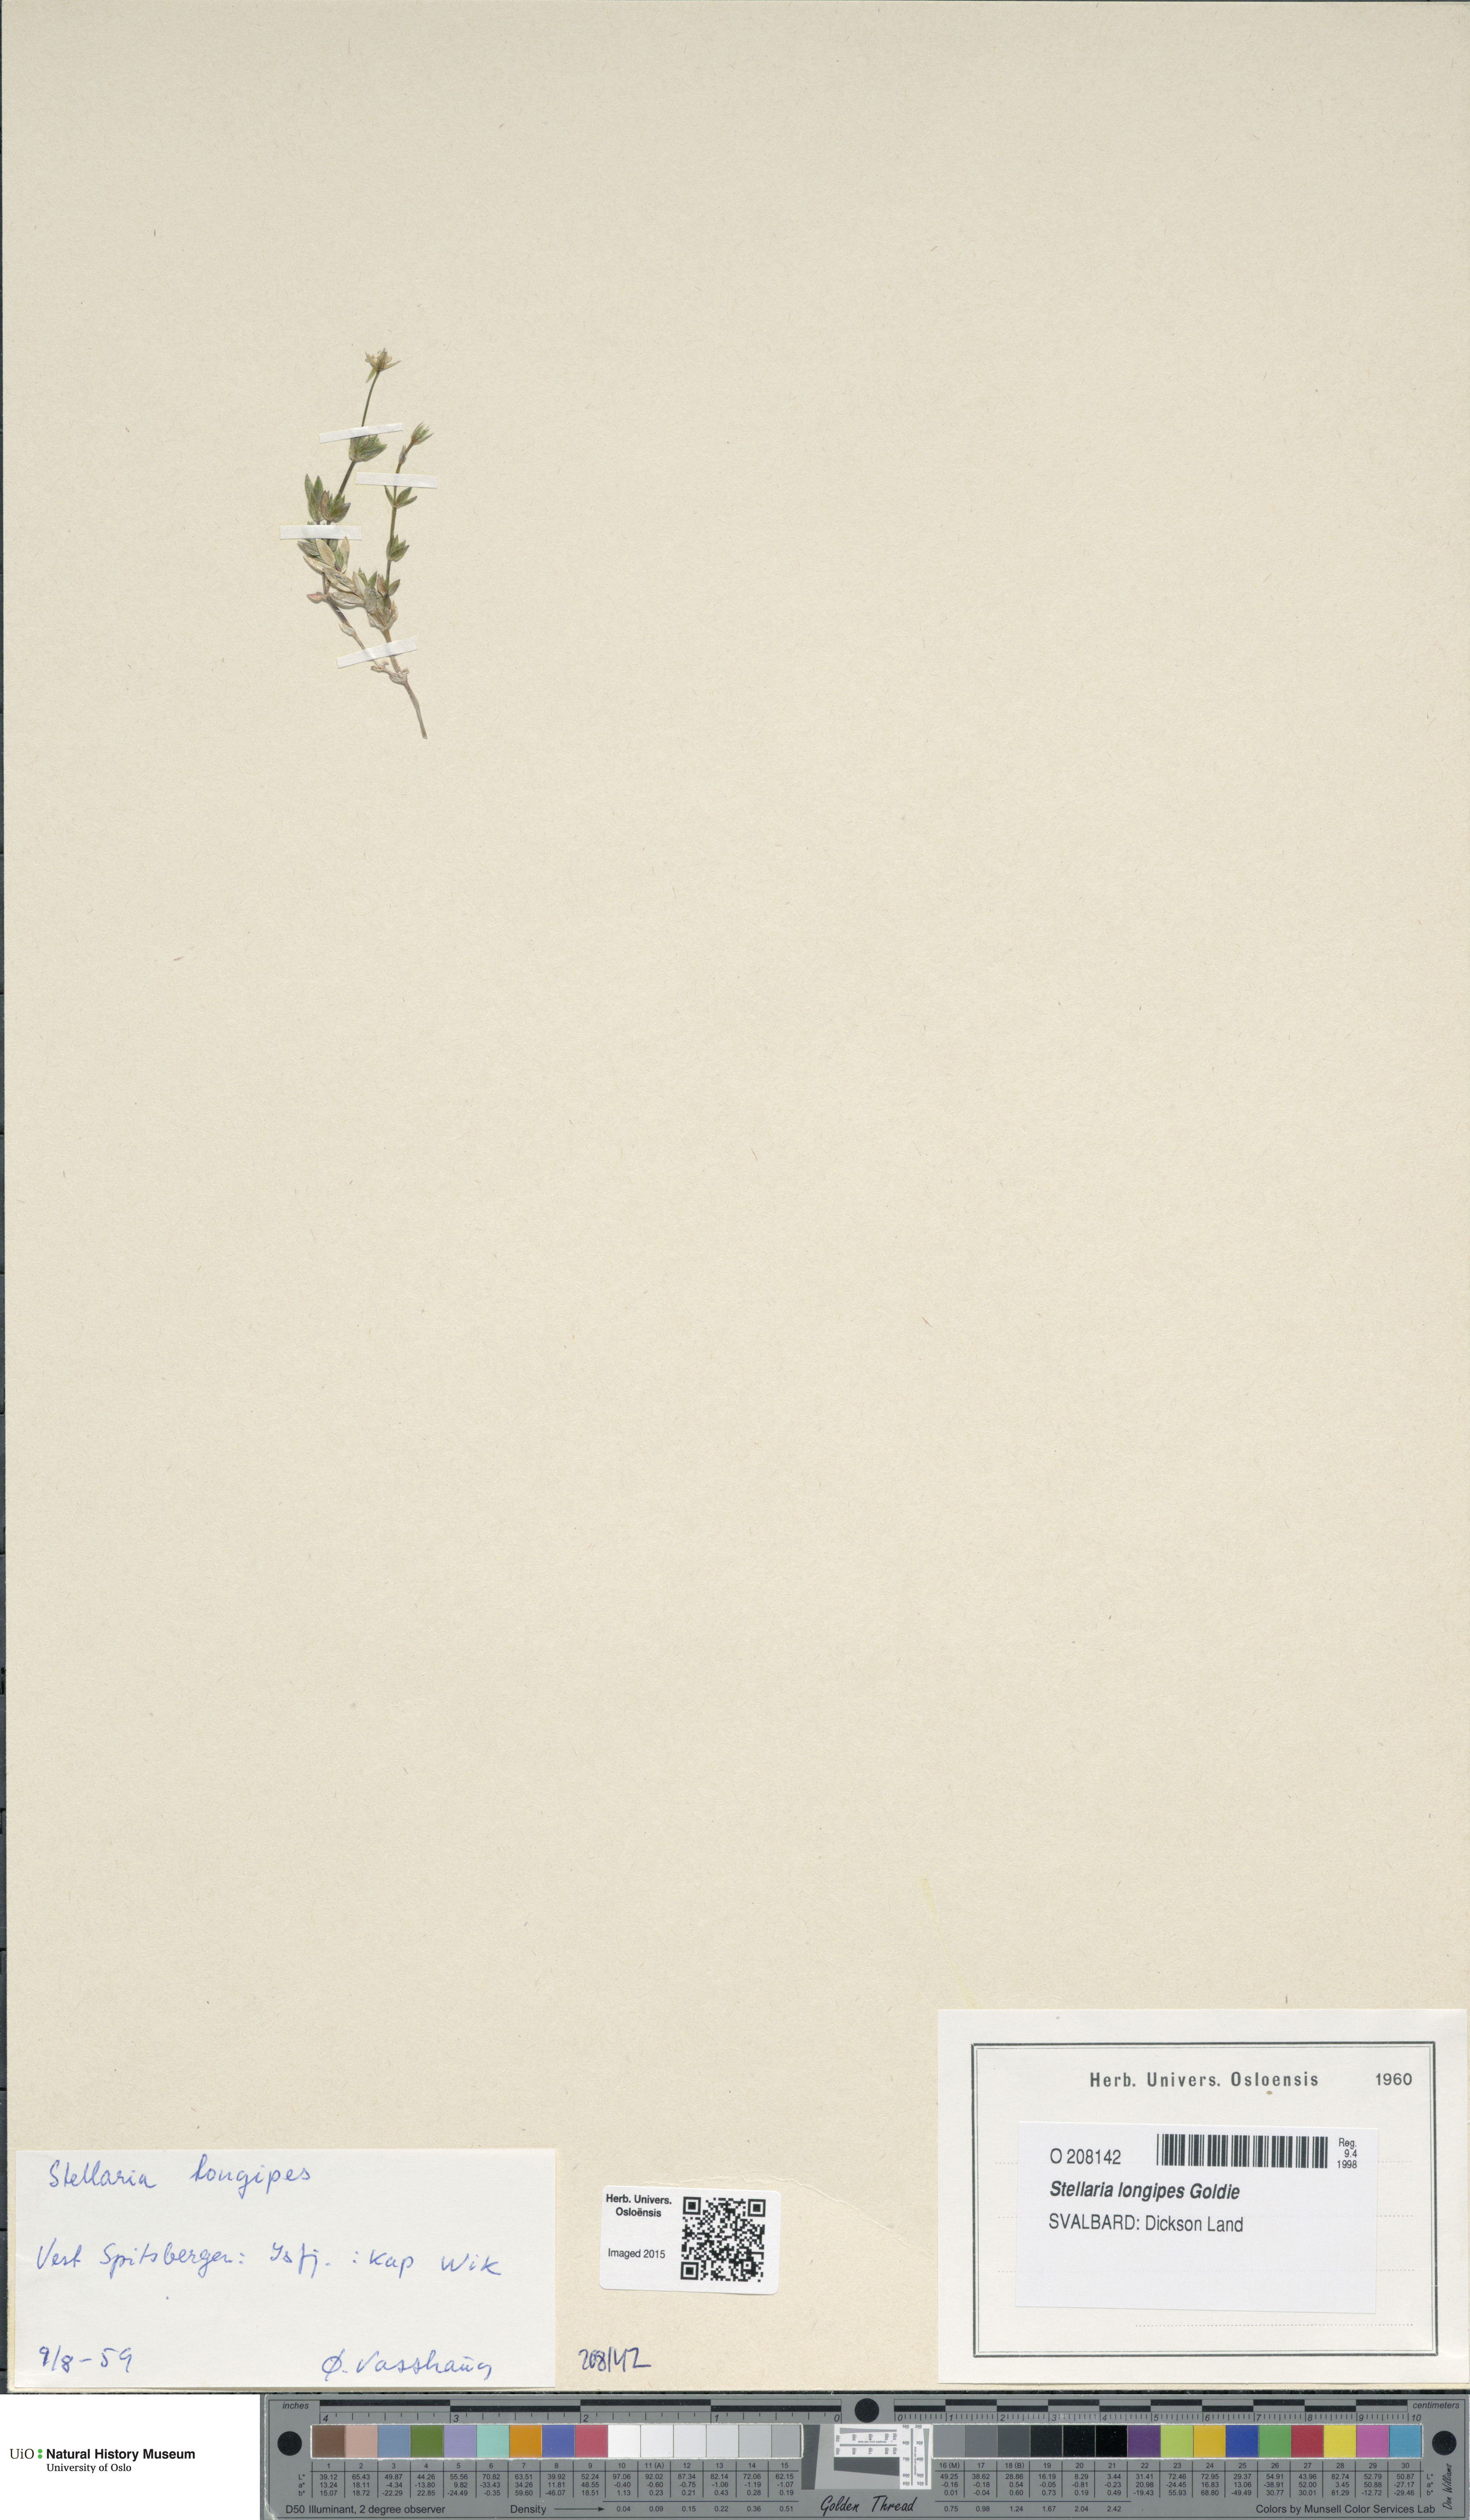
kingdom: Plantae
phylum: Tracheophyta
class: Magnoliopsida
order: Caryophyllales
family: Caryophyllaceae
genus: Stellaria
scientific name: Stellaria longipes
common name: Goldie's starwort
